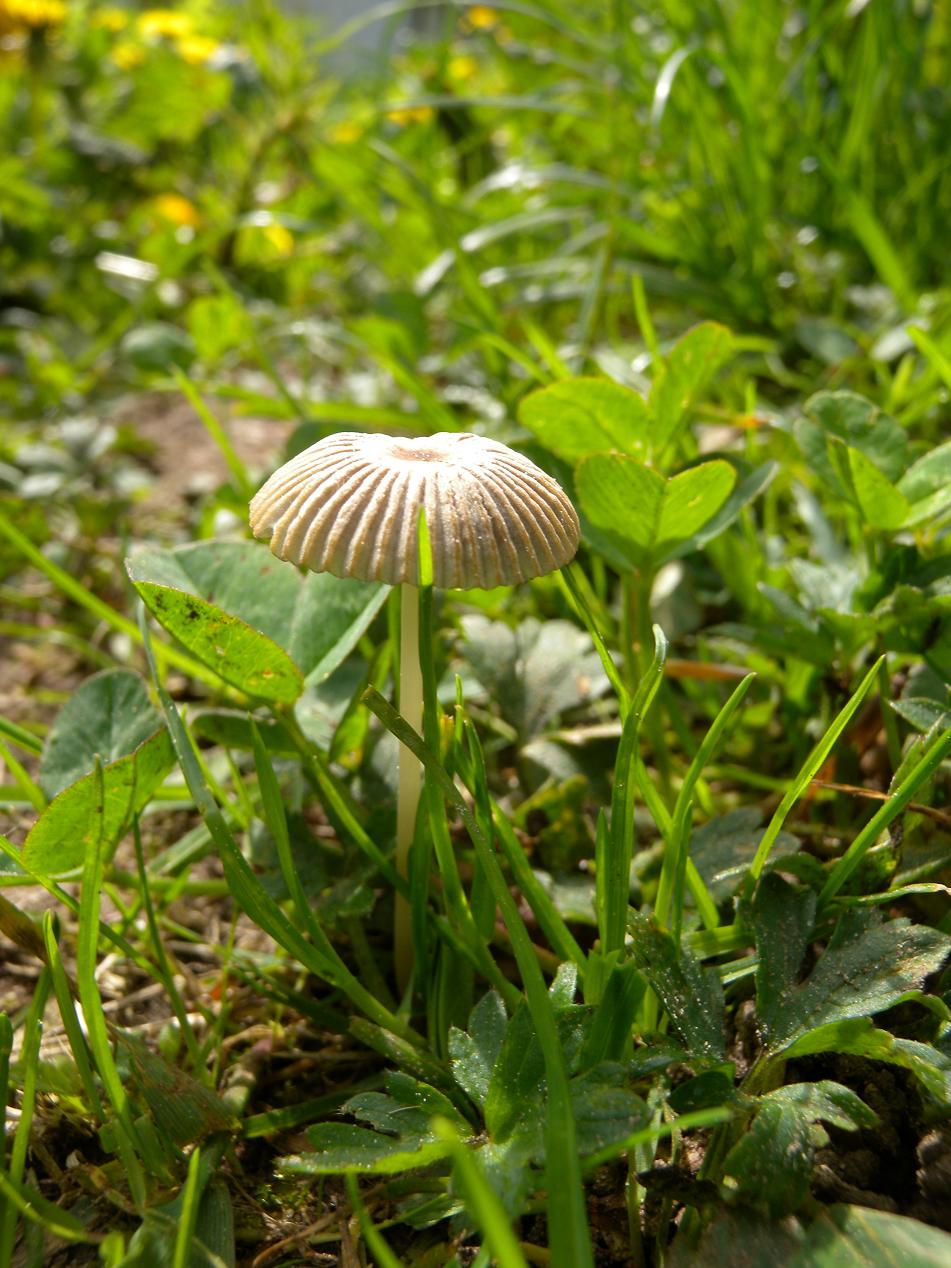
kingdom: Fungi
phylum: Basidiomycota
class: Agaricomycetes
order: Agaricales
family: Psathyrellaceae
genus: Parasola
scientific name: Parasola schroeteri
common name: bredsporet hjulhat
